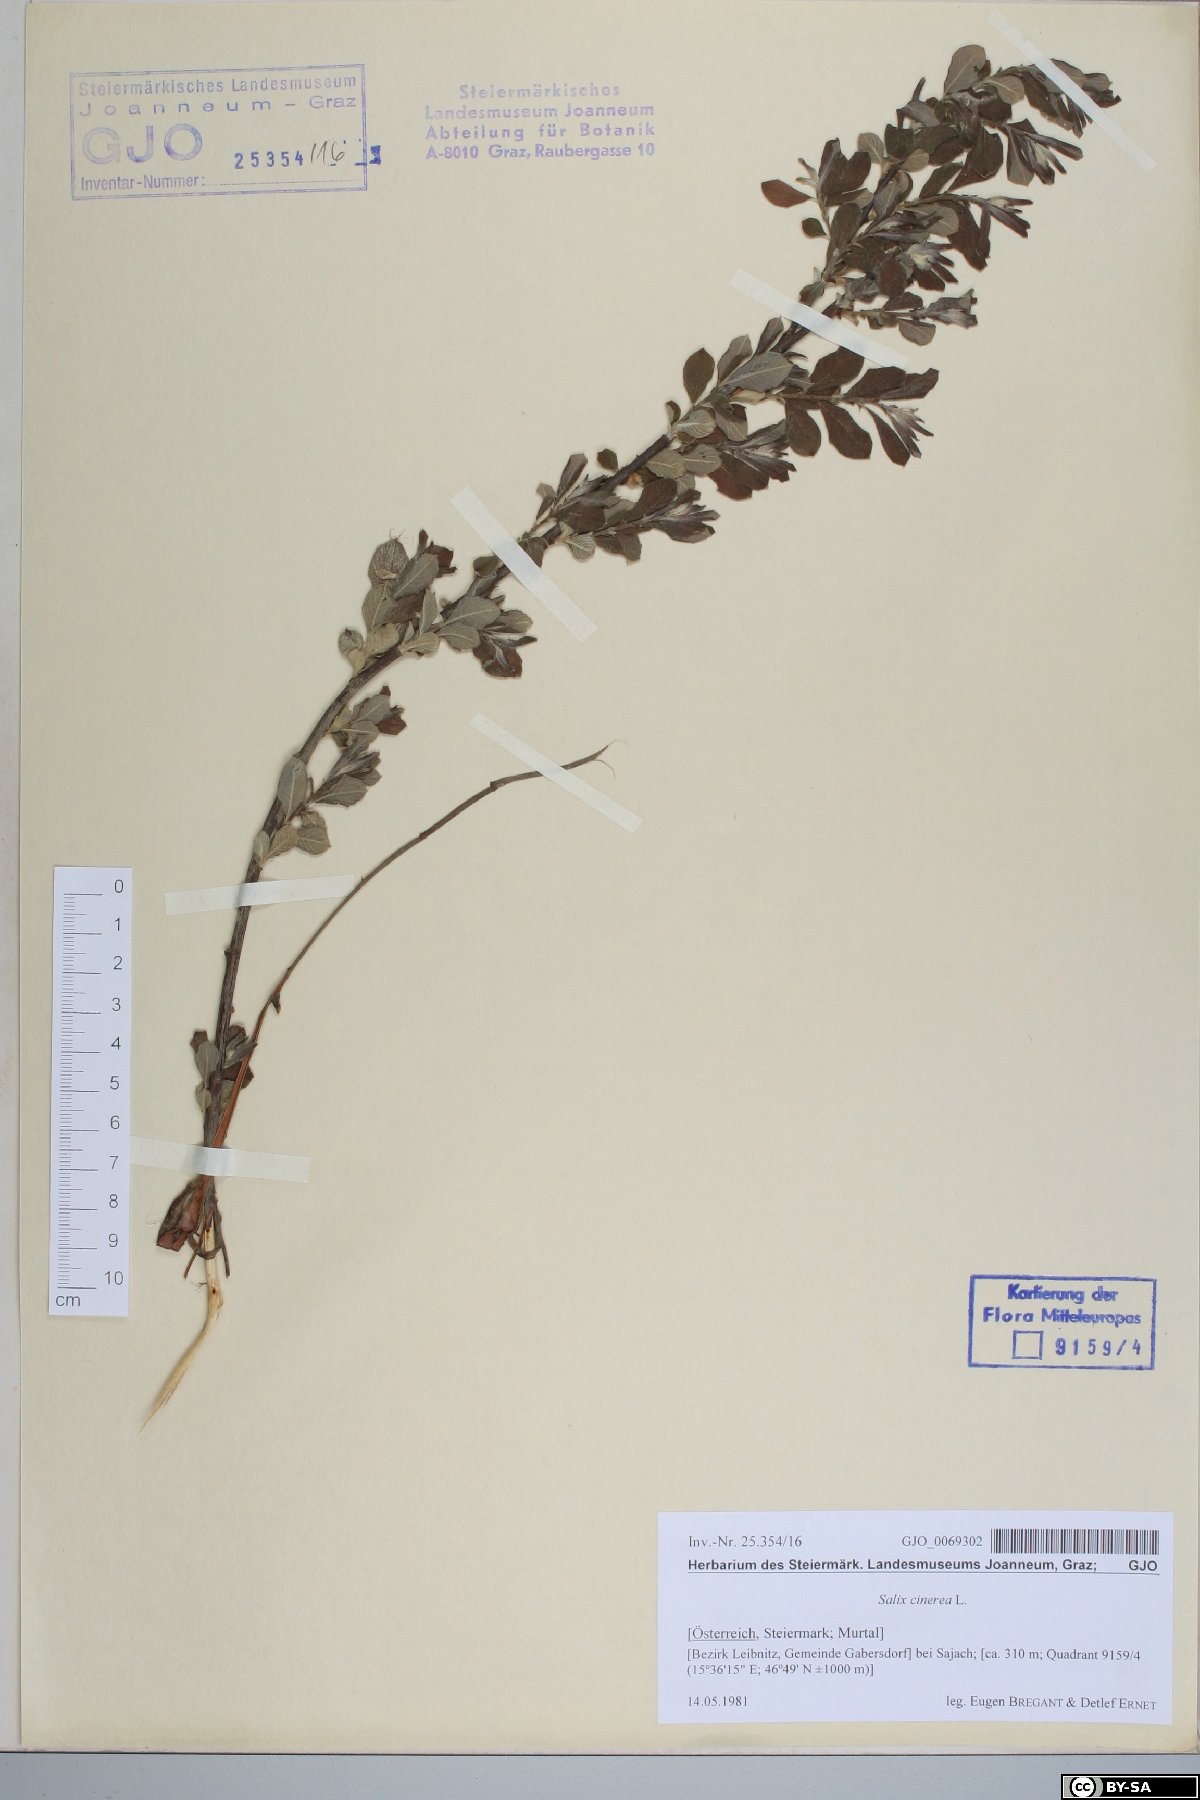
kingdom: Plantae
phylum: Tracheophyta
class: Magnoliopsida
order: Malpighiales
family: Salicaceae
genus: Salix
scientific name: Salix cinerea
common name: Common sallow
